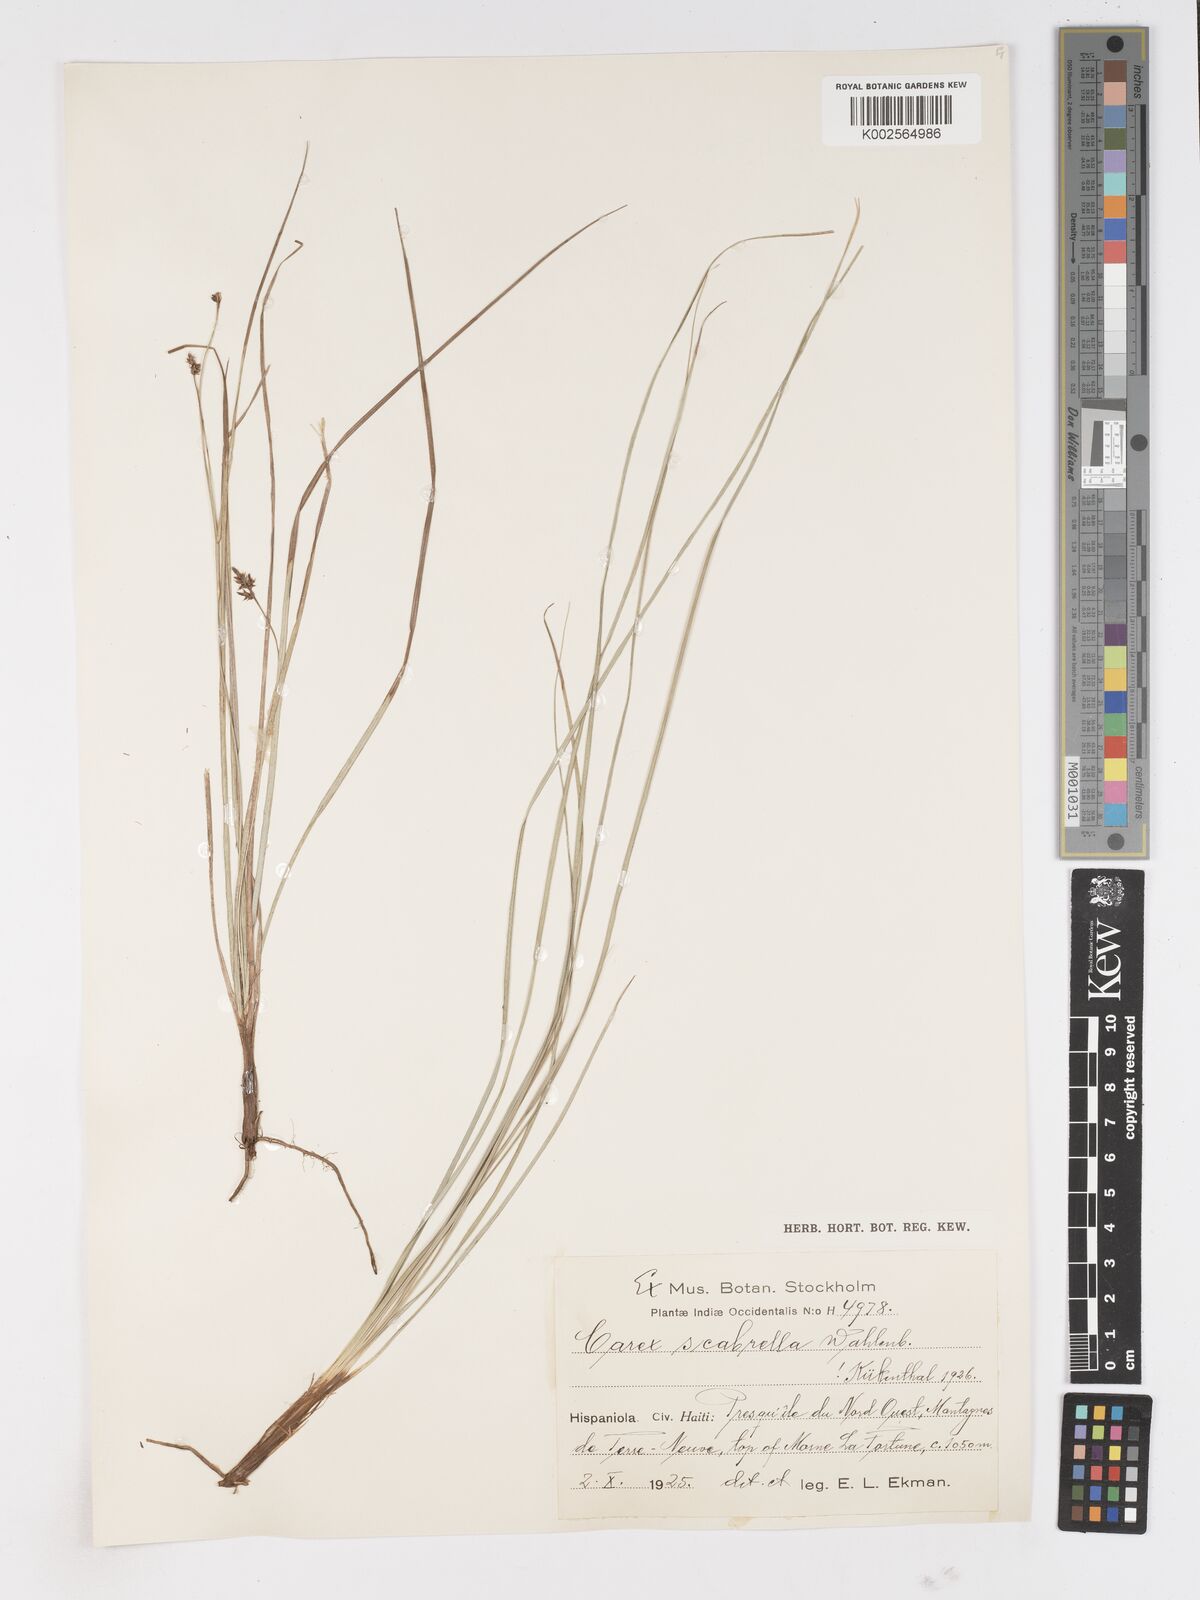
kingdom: Plantae
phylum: Tracheophyta
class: Liliopsida
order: Poales
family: Cyperaceae
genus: Carex
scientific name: Carex scabrella
